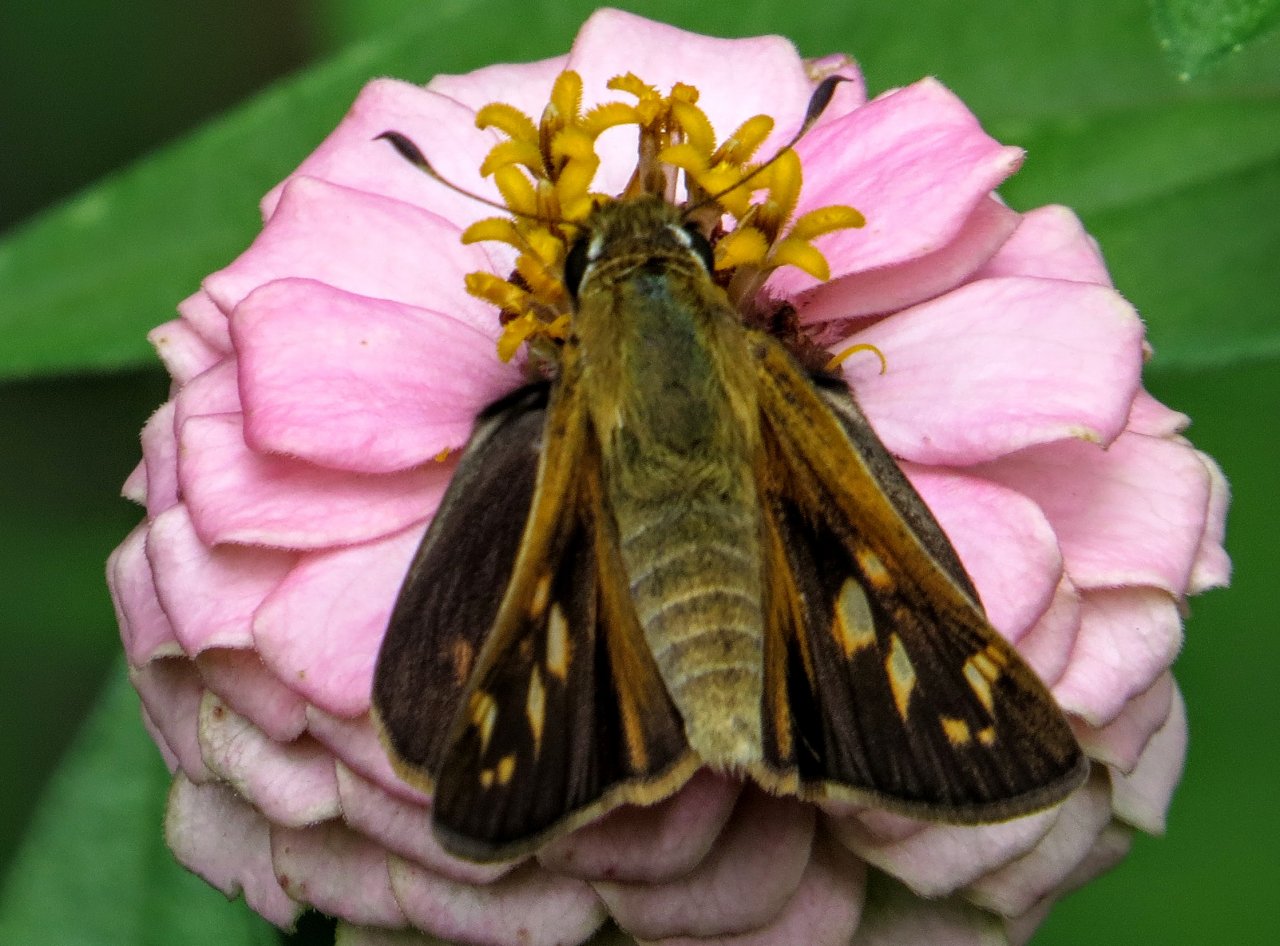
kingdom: Animalia
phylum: Arthropoda
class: Insecta
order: Lepidoptera
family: Hesperiidae
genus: Atalopedes
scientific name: Atalopedes campestris
